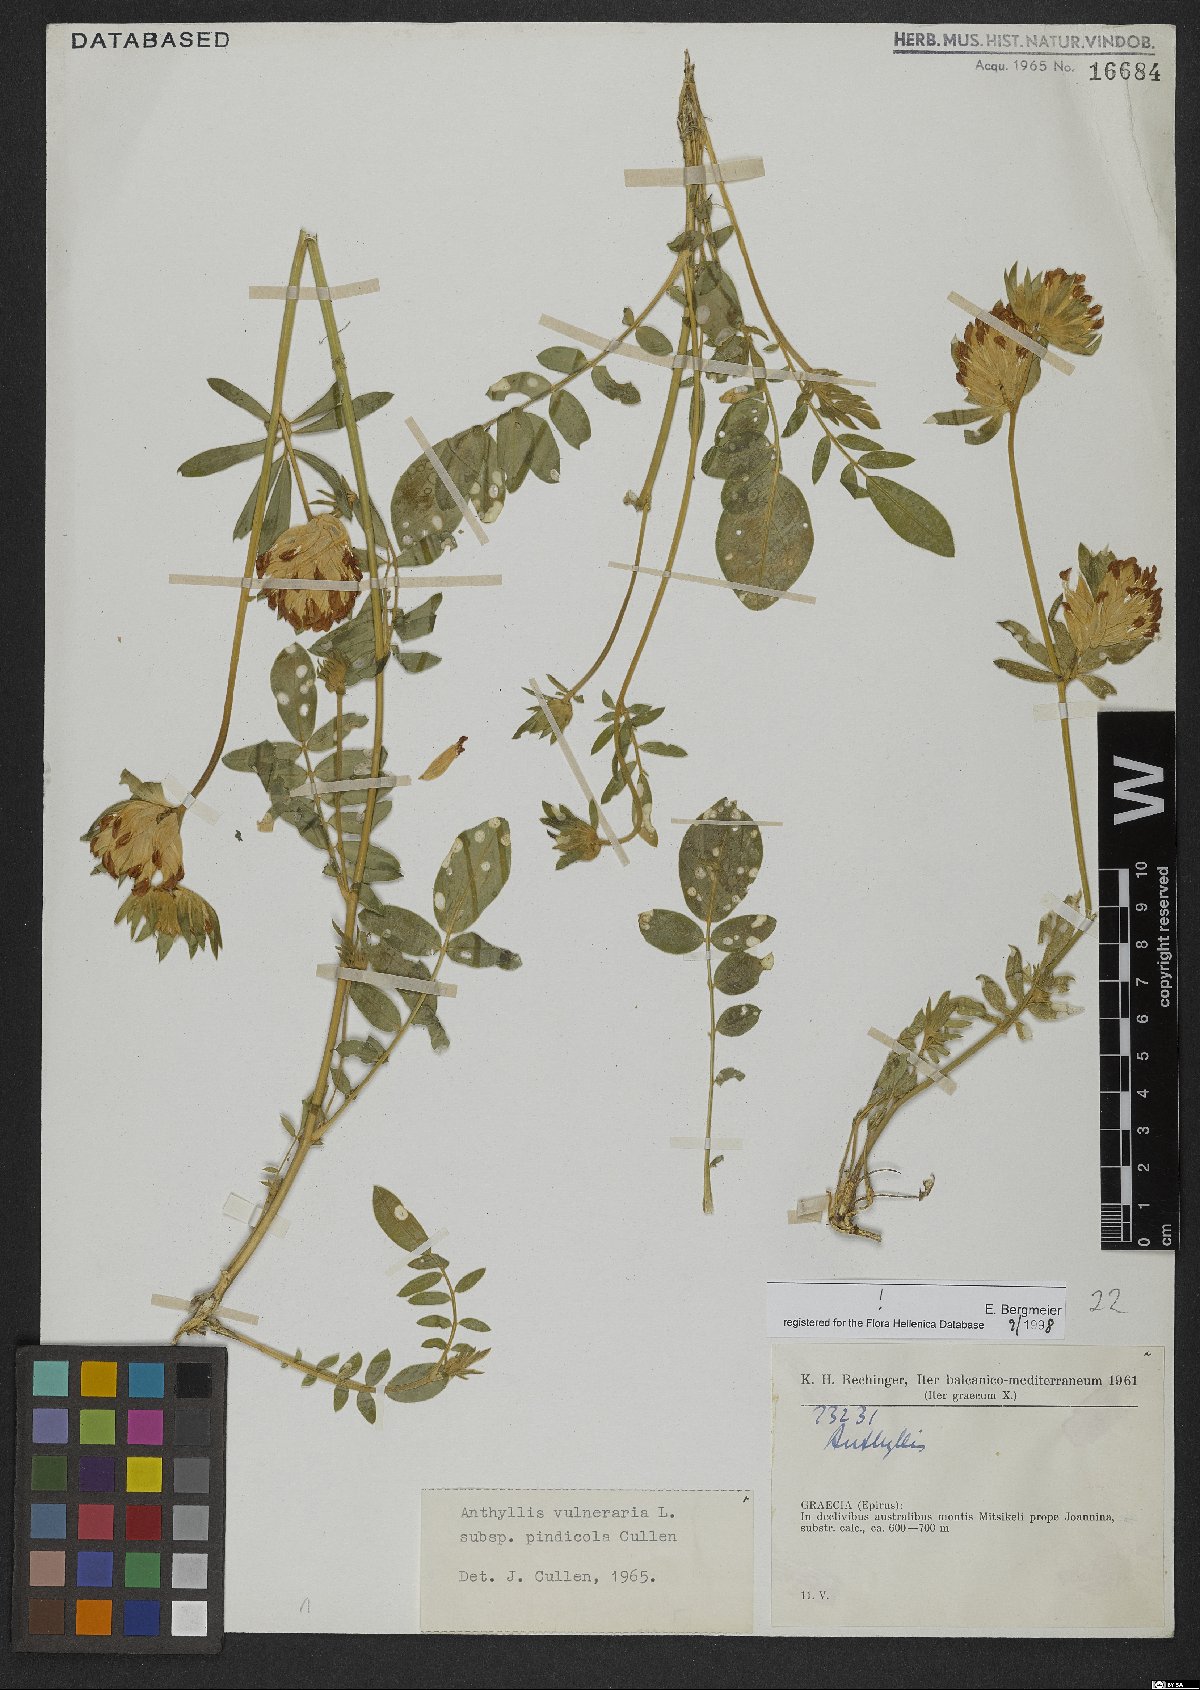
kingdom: Plantae
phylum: Tracheophyta
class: Magnoliopsida
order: Fabales
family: Fabaceae
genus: Anthyllis
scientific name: Anthyllis vulneraria
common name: Kidney vetch
